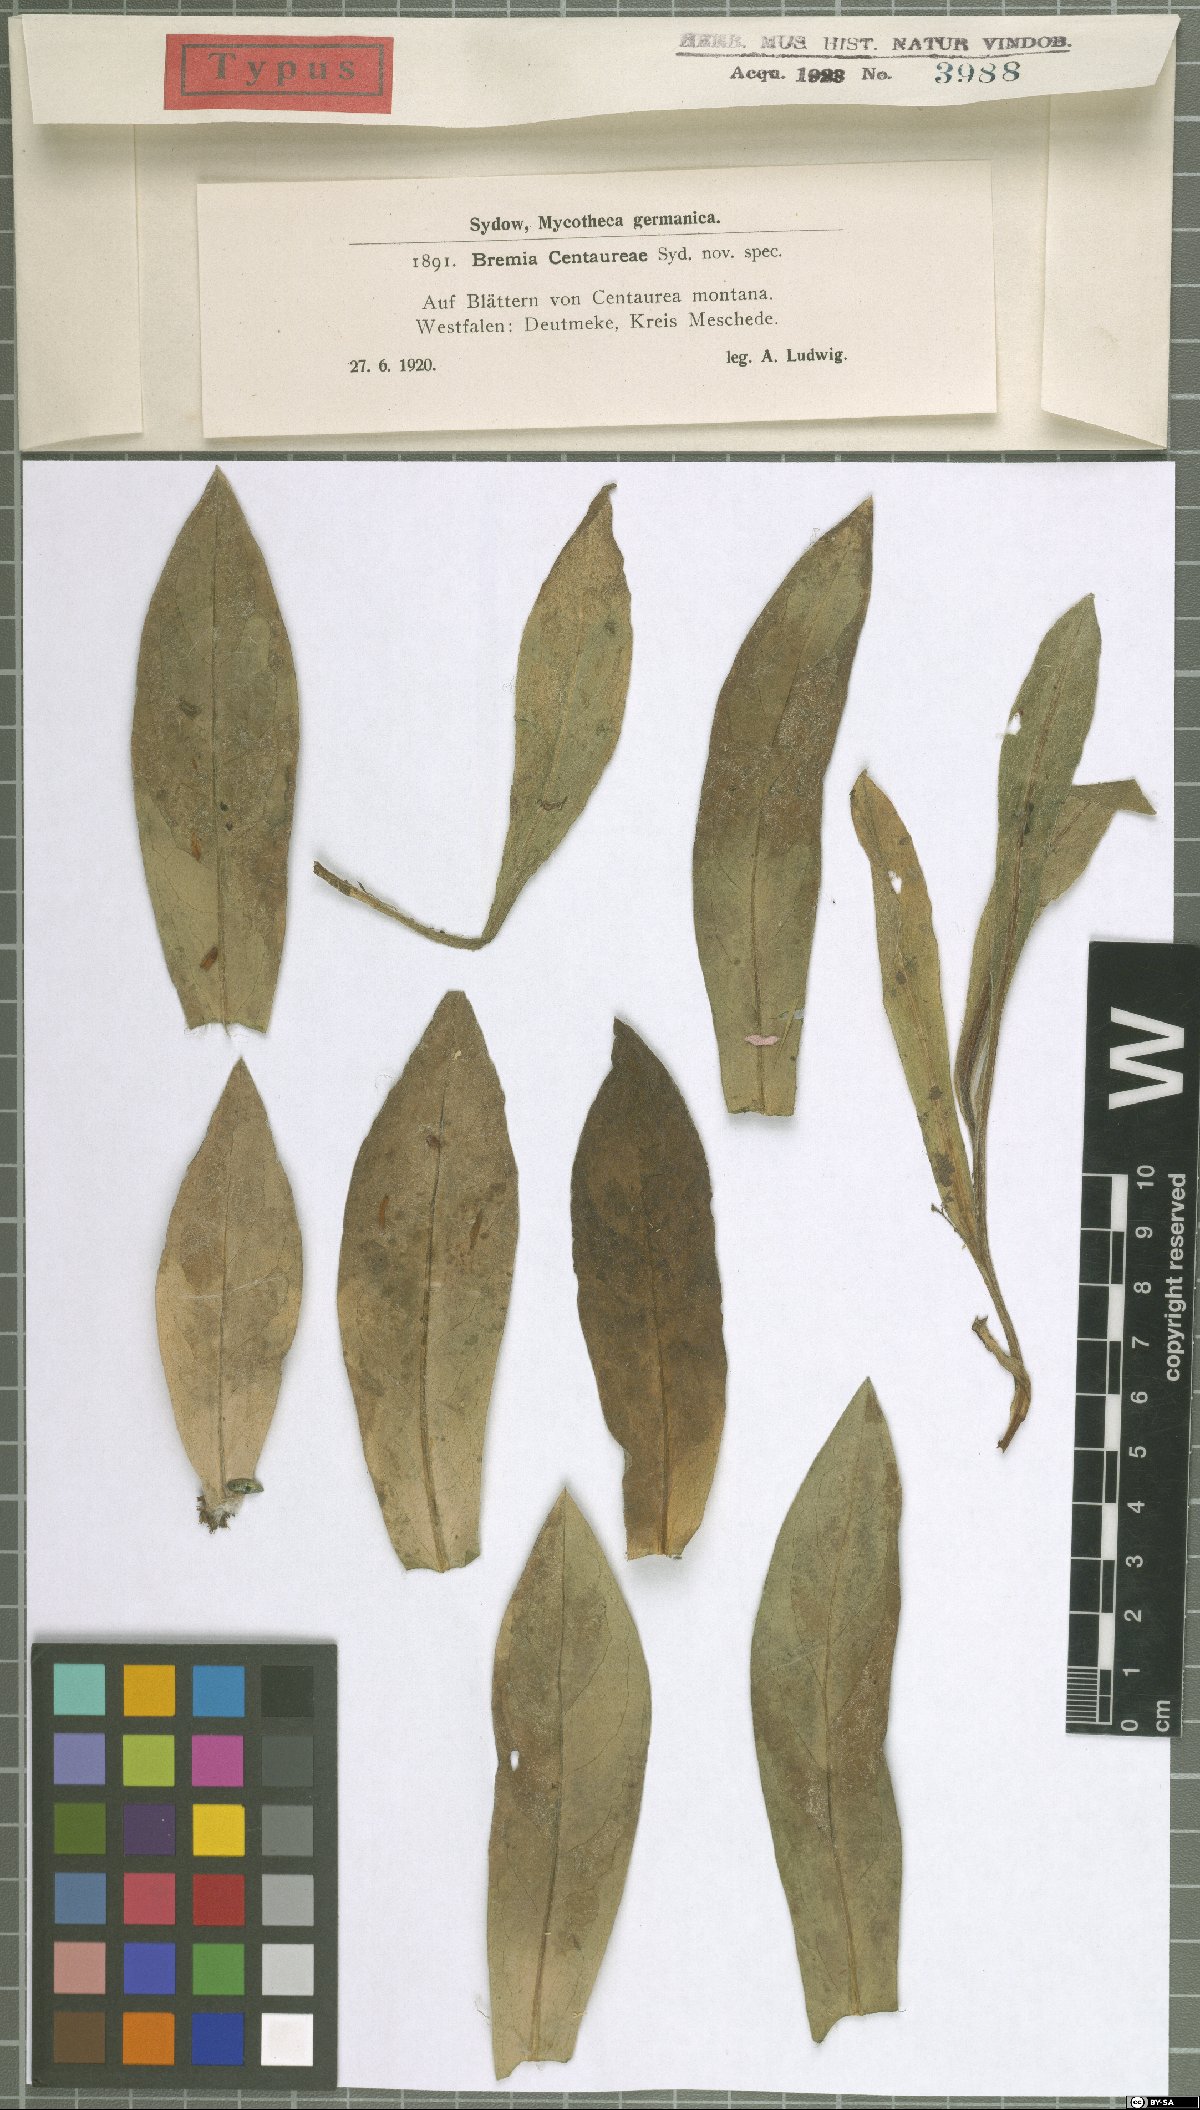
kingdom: Chromista
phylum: Oomycota
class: Peronosporea
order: Peronosporales
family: Peronosporaceae
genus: Bremia
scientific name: Bremia lactucae
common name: Lettuce downy mildew
